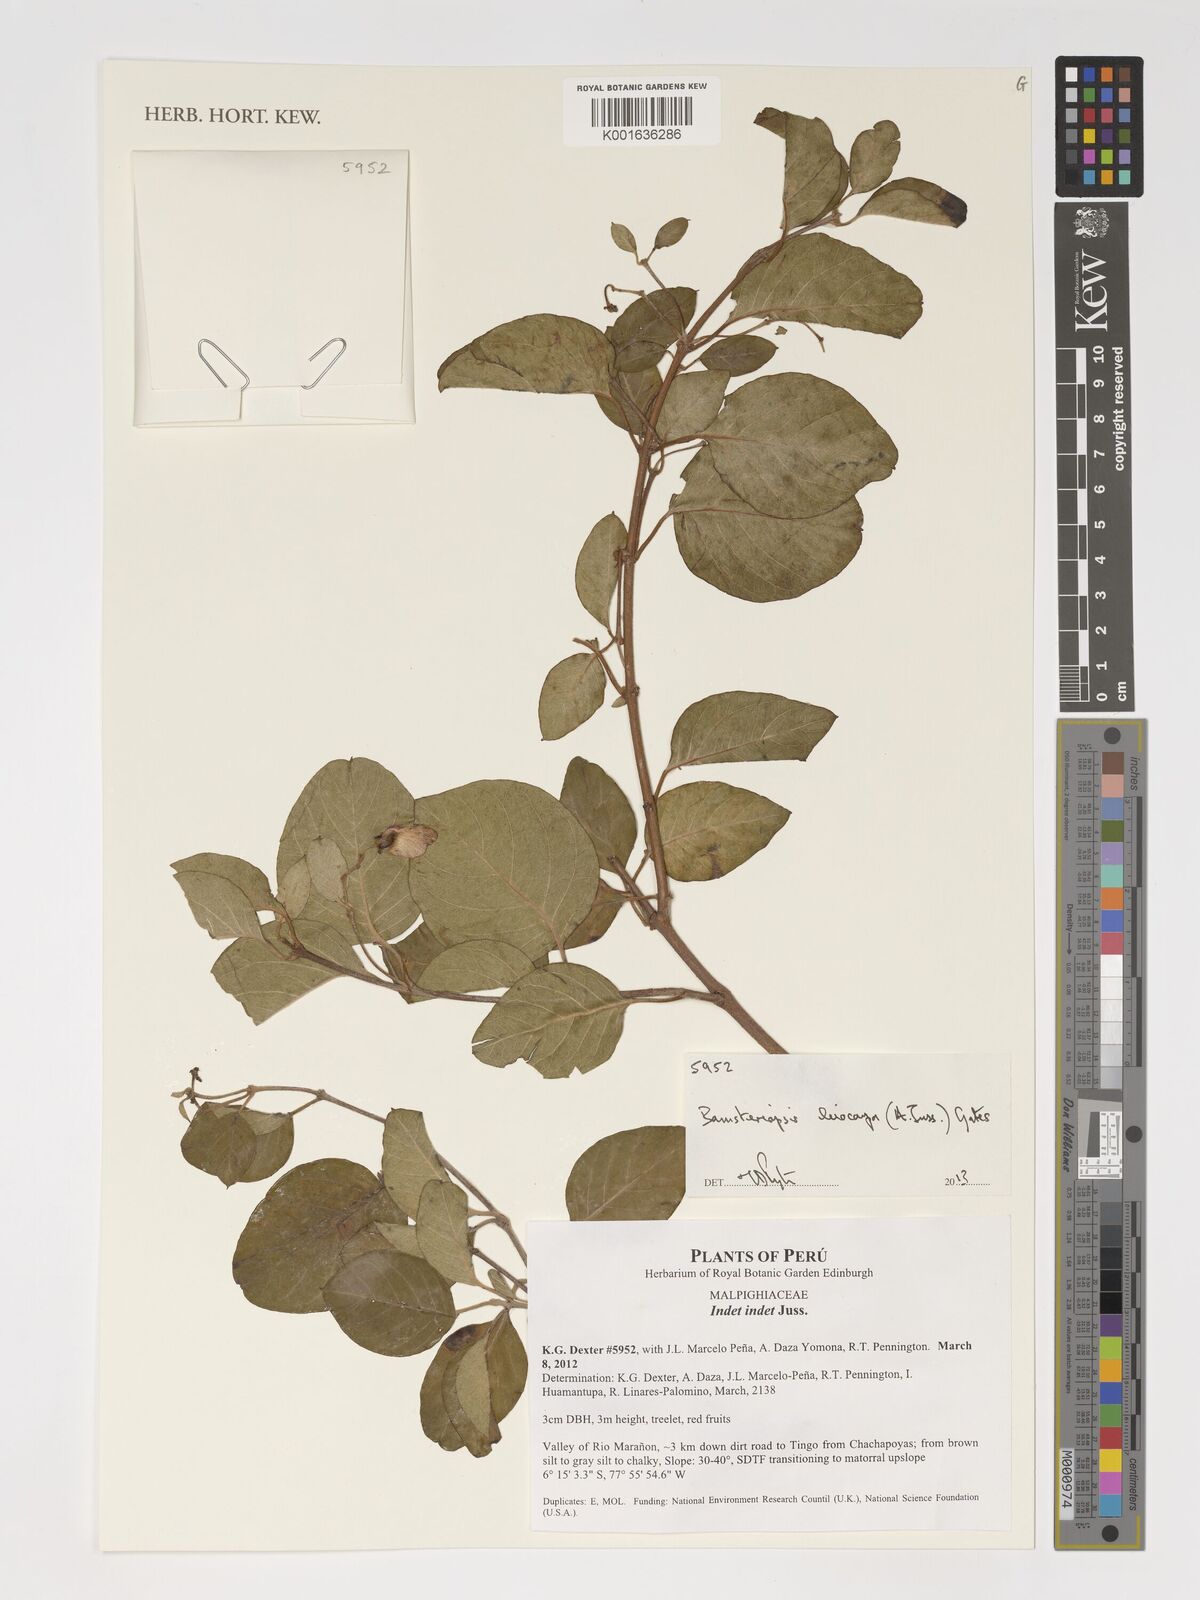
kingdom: Plantae
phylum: Tracheophyta
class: Magnoliopsida
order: Malpighiales
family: Malpighiaceae
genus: Diplopterys
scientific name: Diplopterys leiocarpa
